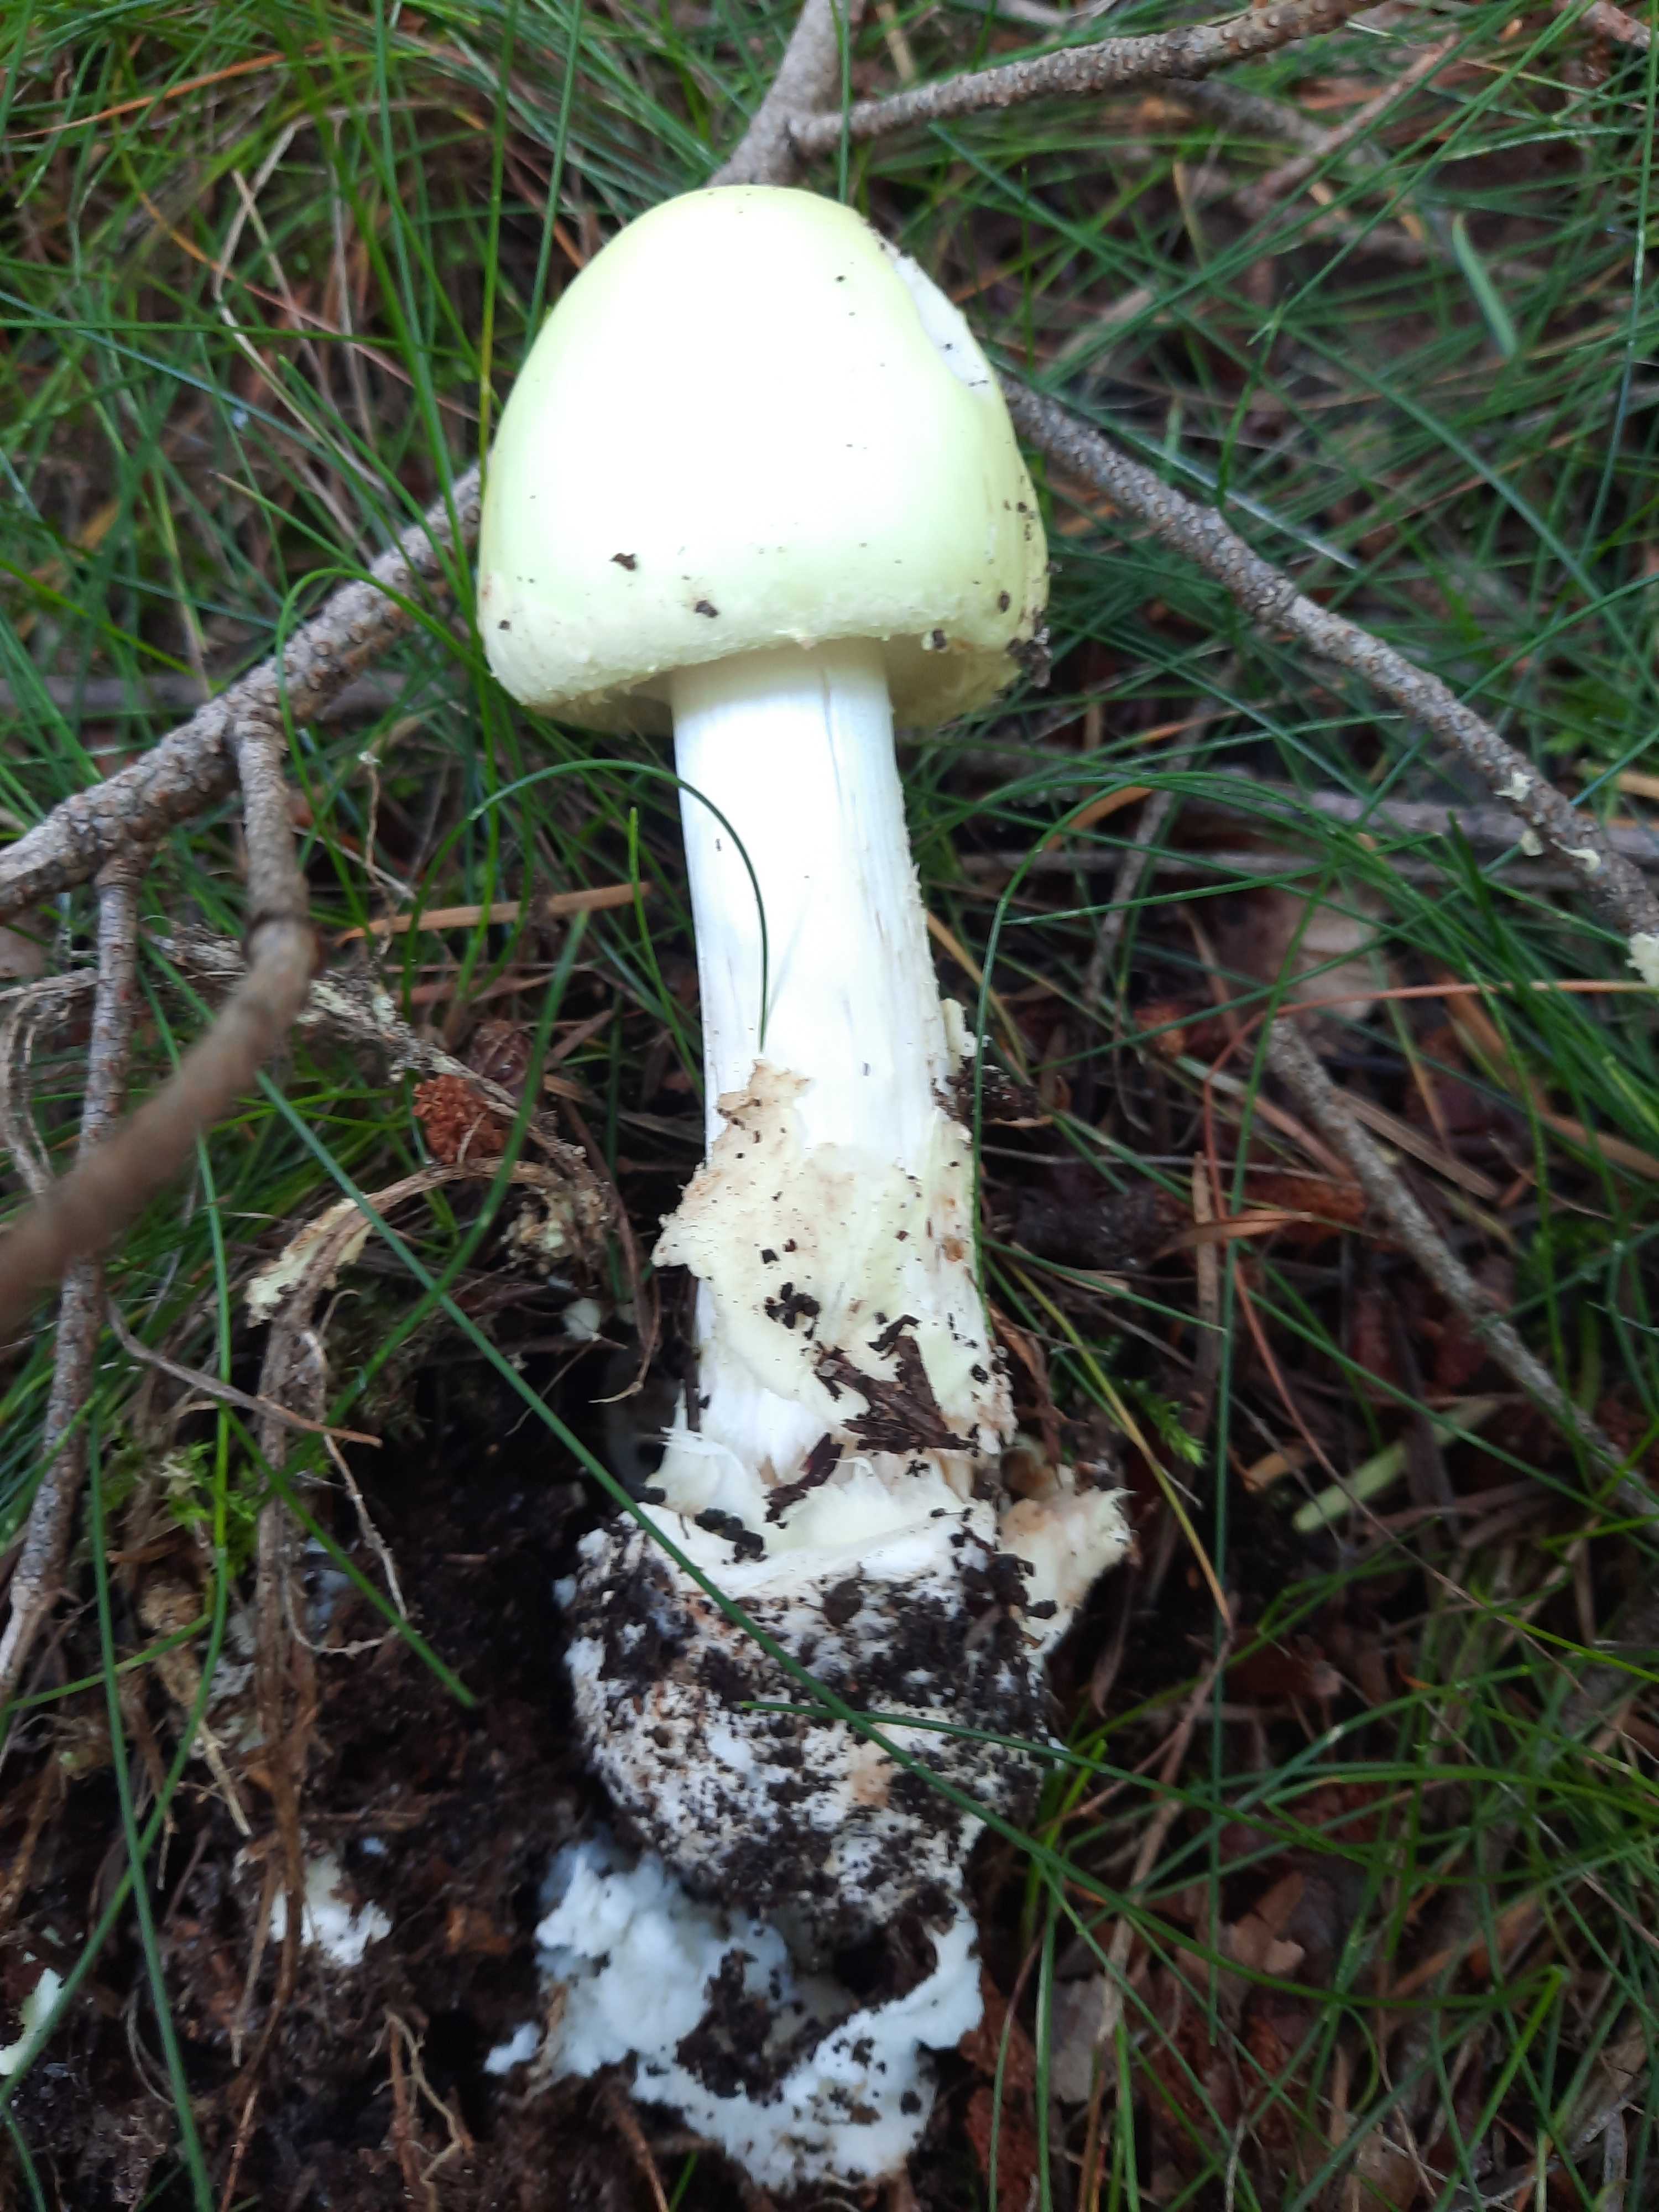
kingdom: Fungi
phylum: Basidiomycota
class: Agaricomycetes
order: Agaricales
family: Amanitaceae
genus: Amanita
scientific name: Amanita phalloides
